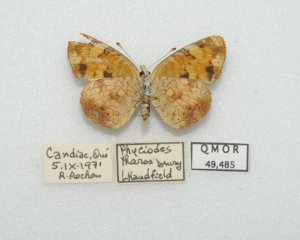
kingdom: Animalia
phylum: Arthropoda
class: Insecta
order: Lepidoptera
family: Nymphalidae
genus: Phyciodes
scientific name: Phyciodes tharos
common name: Northern Crescent
